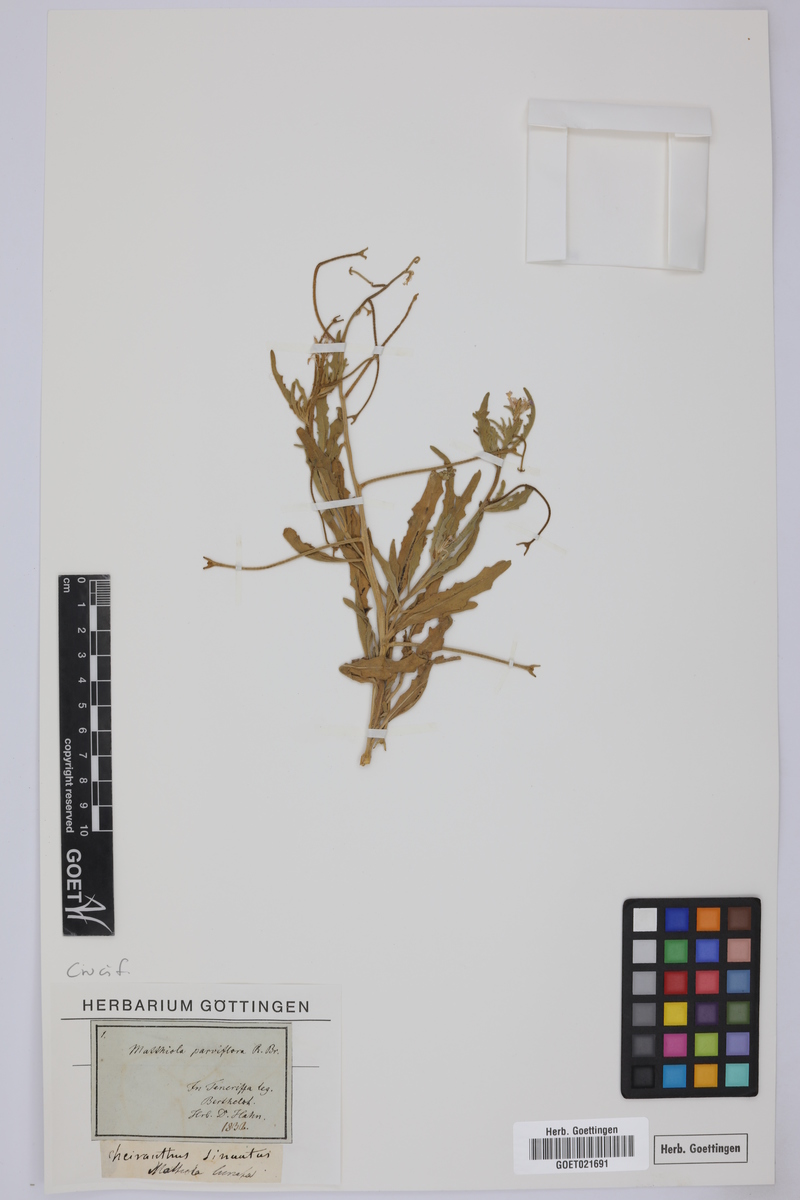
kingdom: Plantae
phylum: Tracheophyta
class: Magnoliopsida
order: Brassicales
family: Brassicaceae
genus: Matthiola
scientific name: Matthiola lunata
